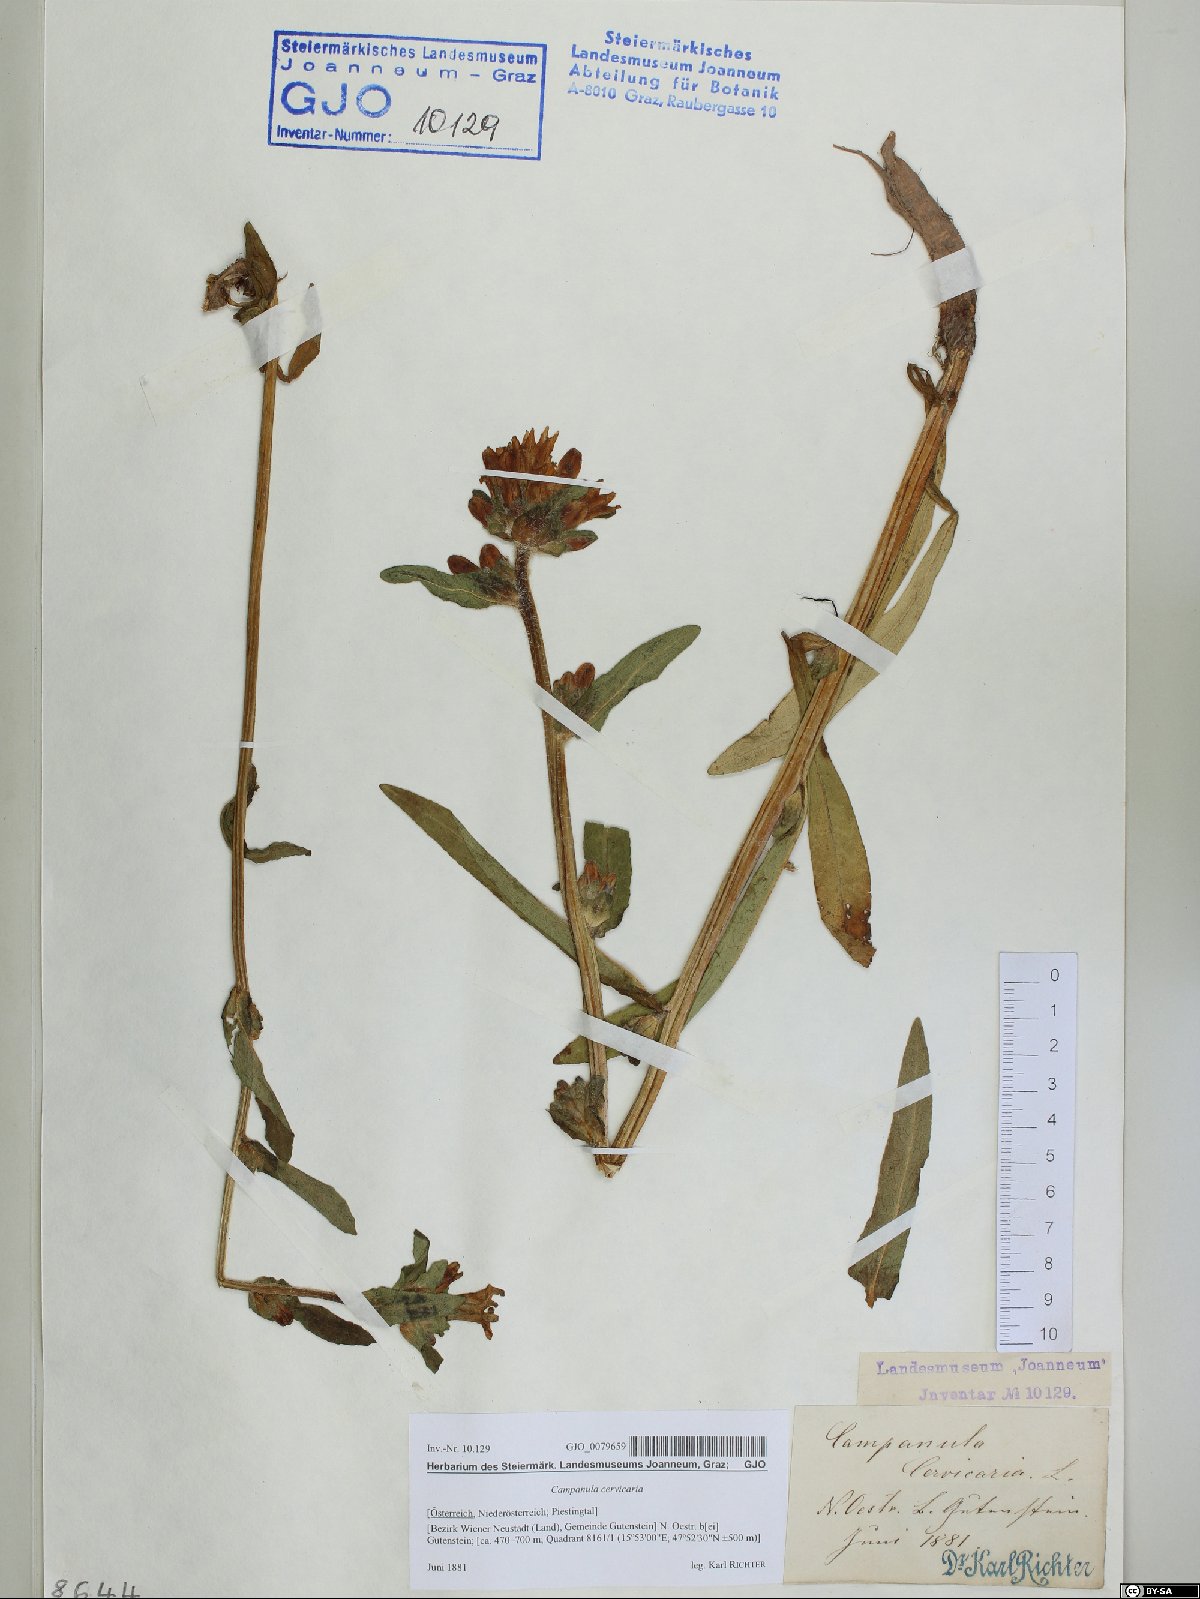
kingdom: Plantae
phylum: Tracheophyta
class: Magnoliopsida
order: Asterales
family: Campanulaceae
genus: Campanula
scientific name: Campanula cervicaria
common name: Bristly bellflower
